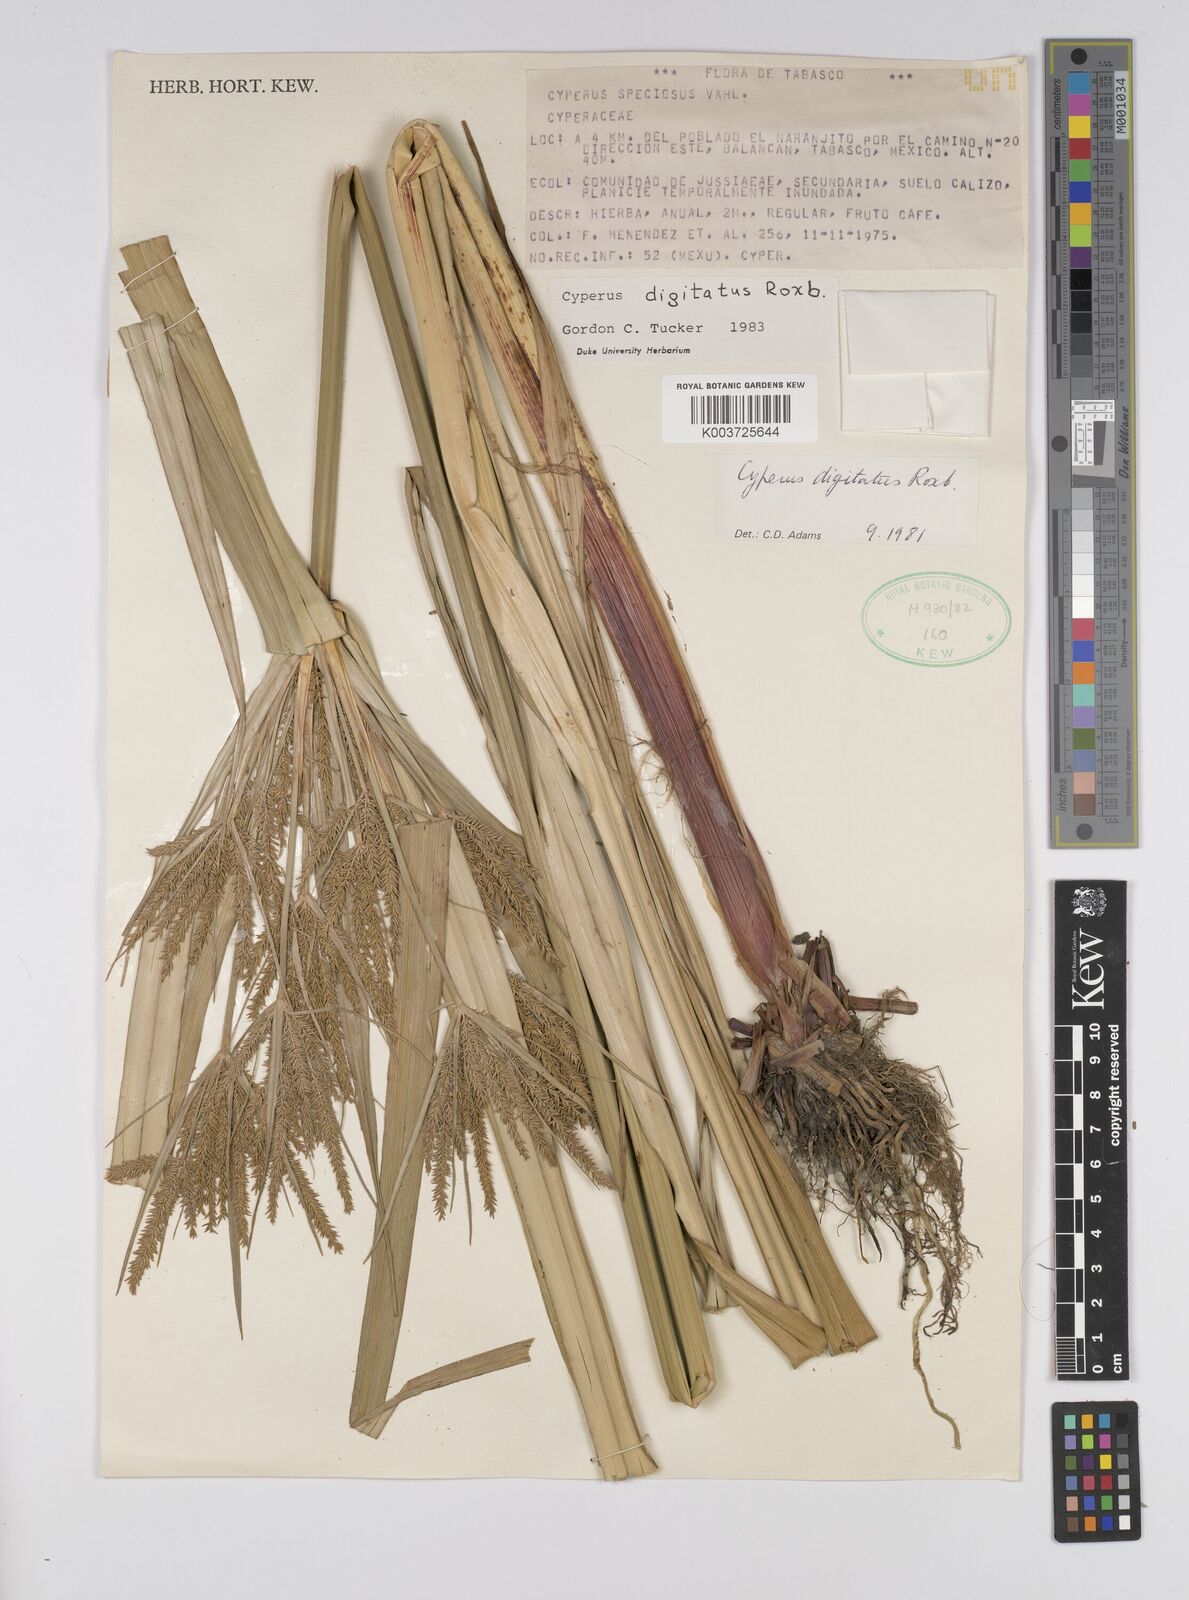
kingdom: Plantae
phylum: Tracheophyta
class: Liliopsida
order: Poales
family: Cyperaceae
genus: Cyperus
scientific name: Cyperus digitatus
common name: Finger flatsedge
